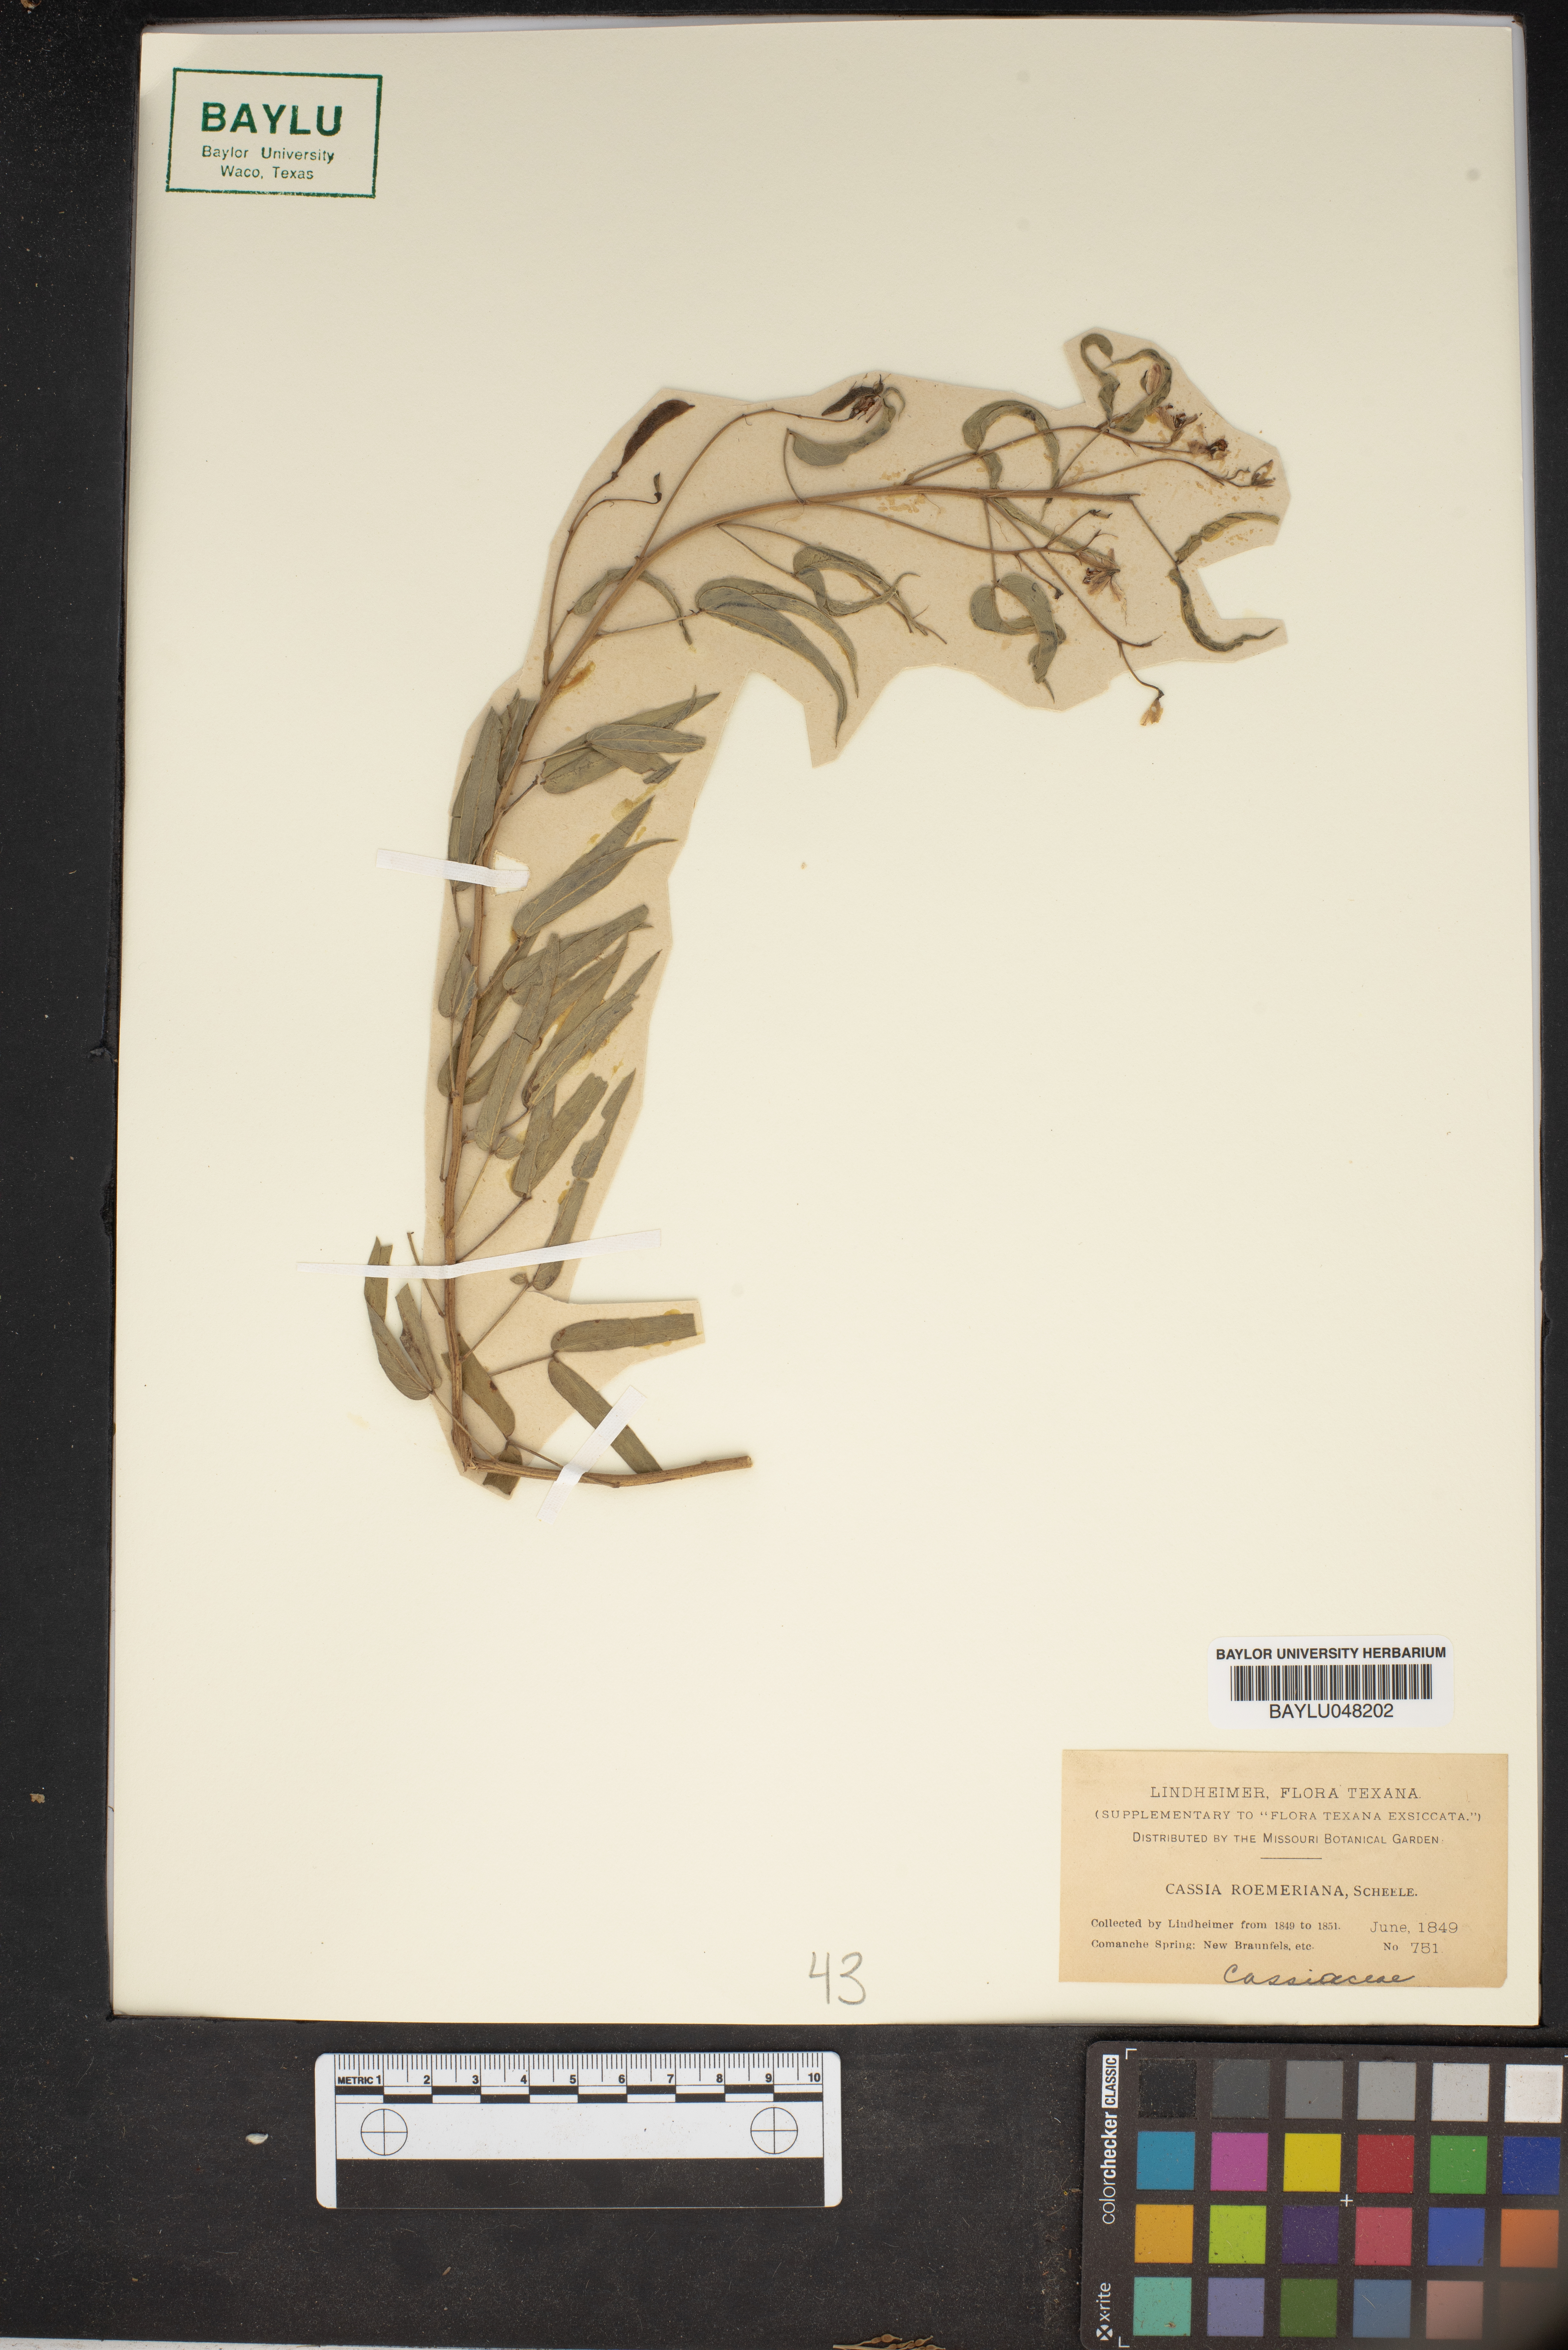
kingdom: Plantae
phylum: Tracheophyta
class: Magnoliopsida
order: Fabales
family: Fabaceae
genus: Senna
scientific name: Senna roemeriana
